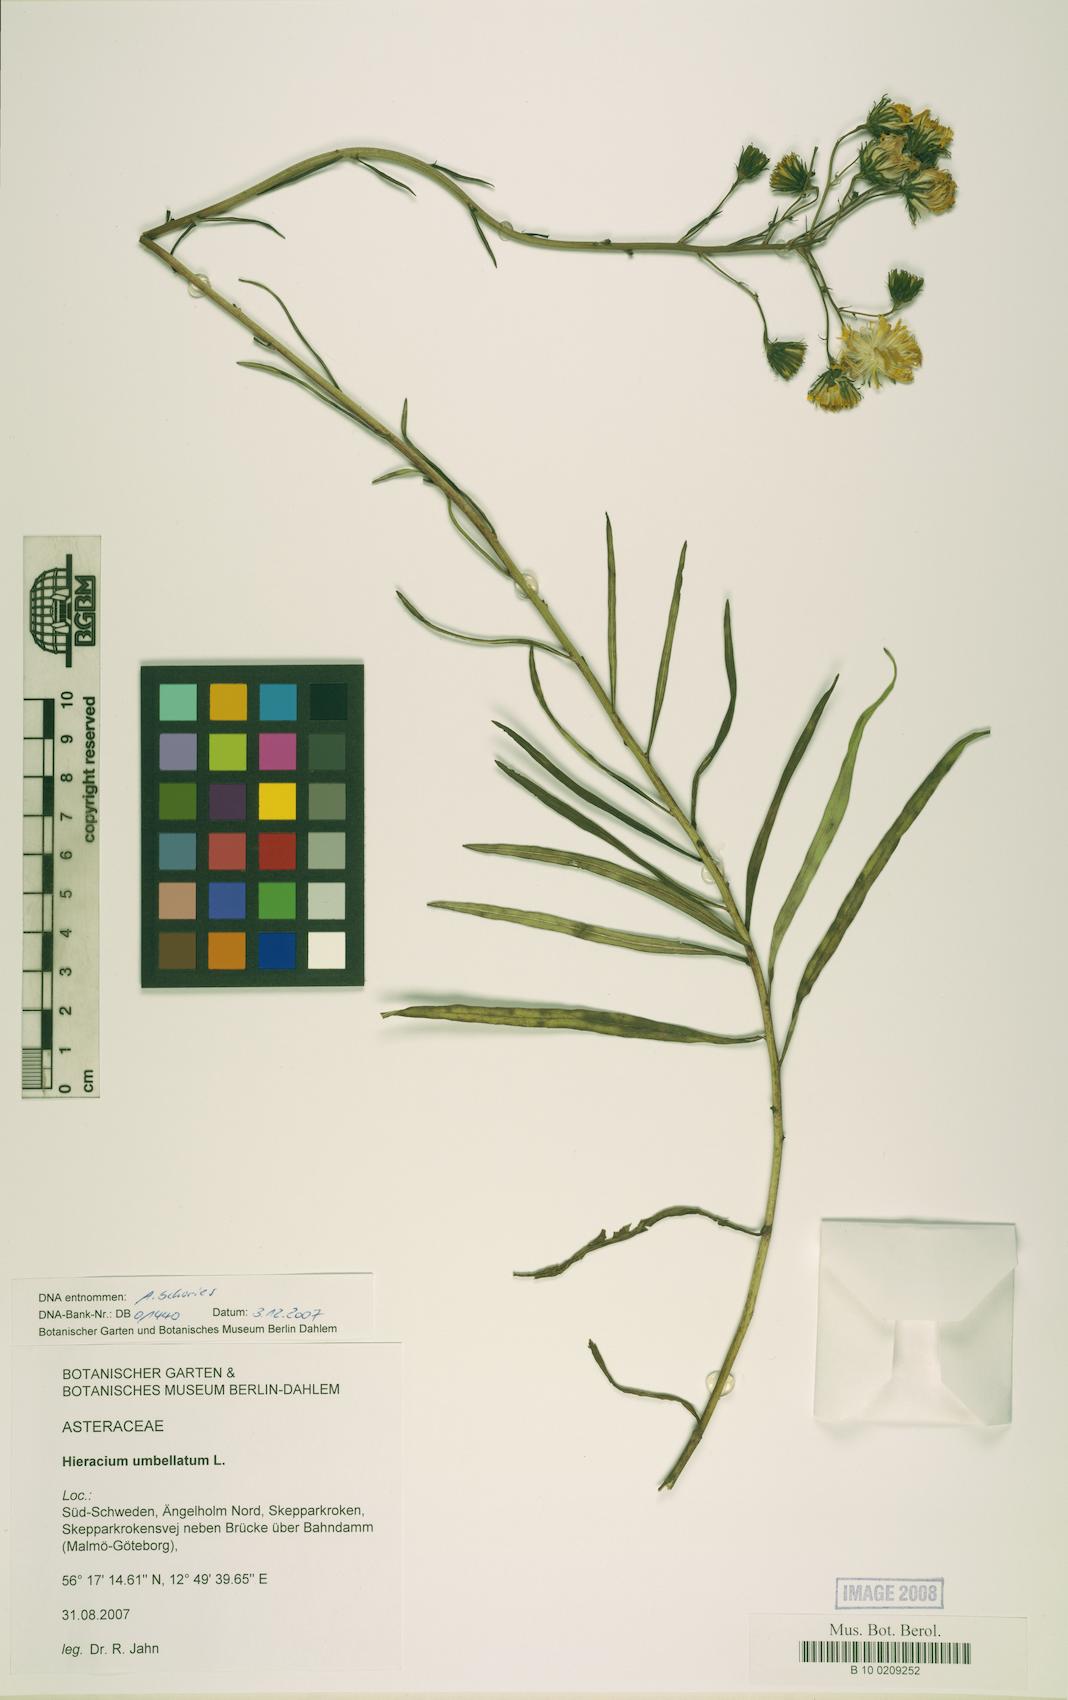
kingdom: Plantae
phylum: Tracheophyta
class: Magnoliopsida
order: Asterales
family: Asteraceae
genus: Hieracium
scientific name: Hieracium umbellatum
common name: Northern hawkweed
